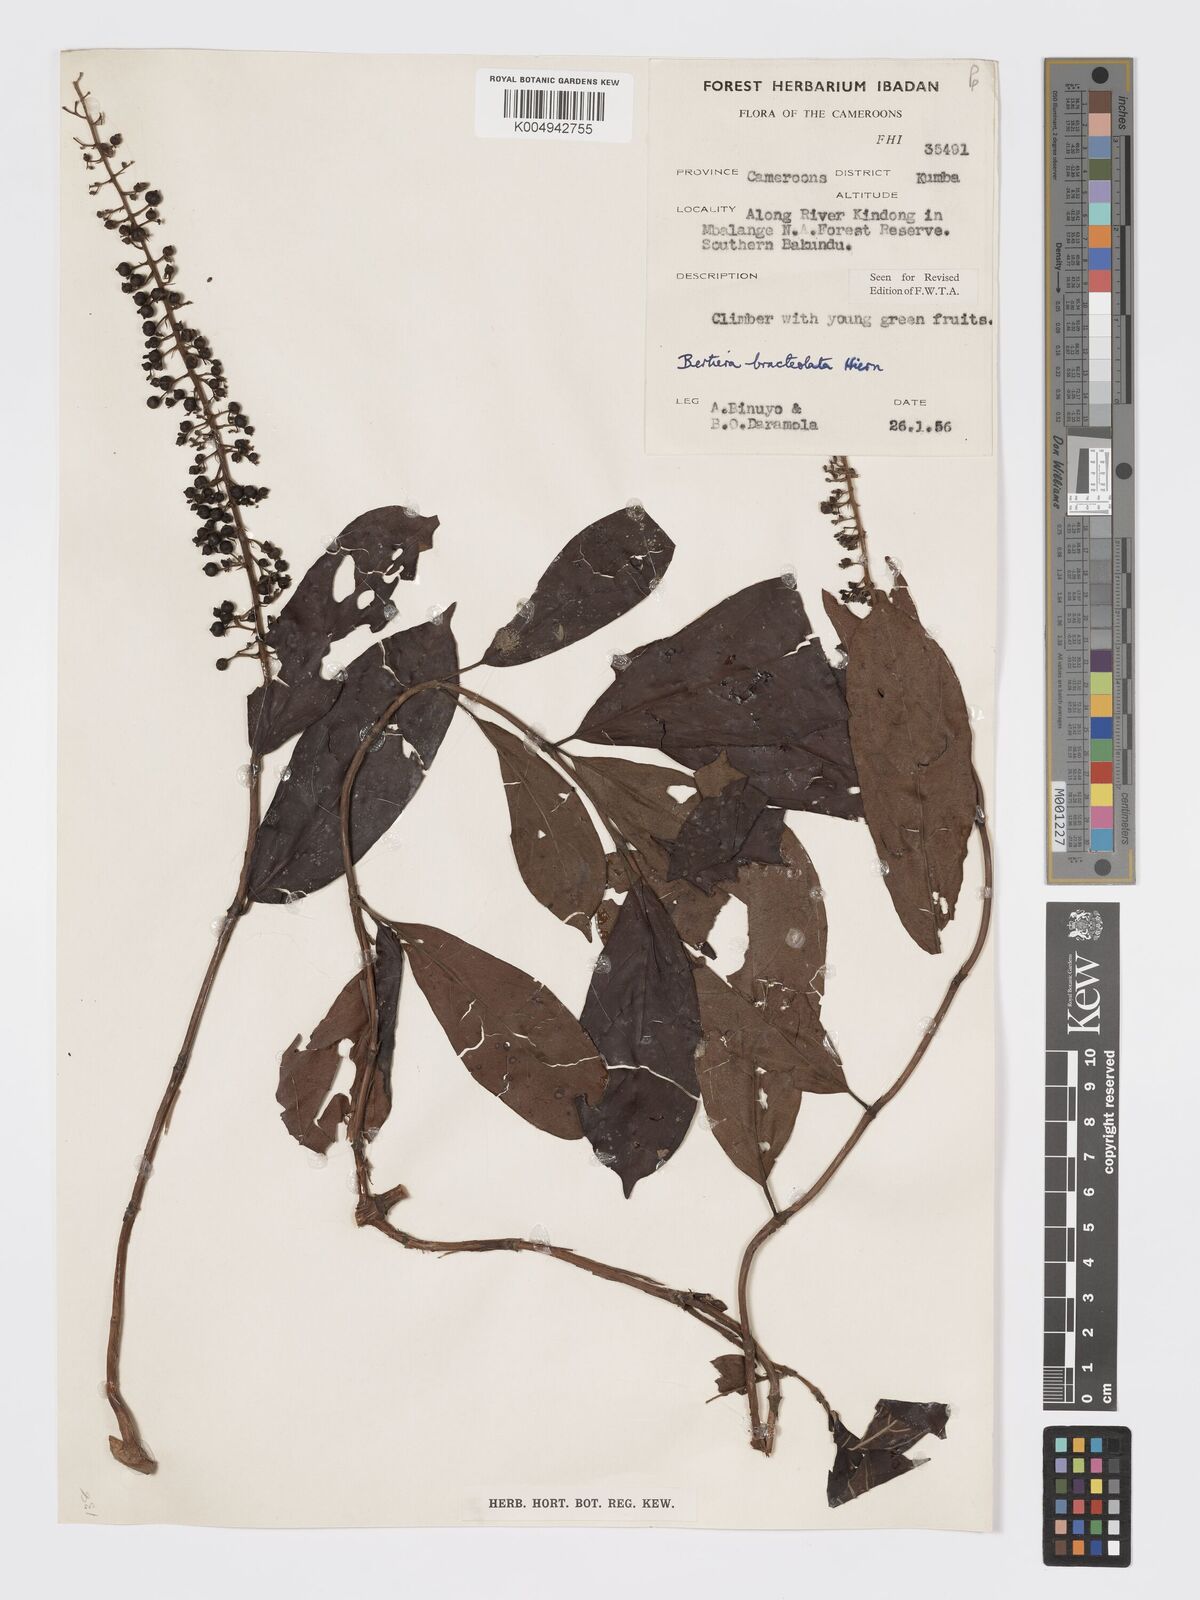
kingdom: Plantae
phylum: Tracheophyta
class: Magnoliopsida
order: Gentianales
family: Rubiaceae
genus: Bertiera
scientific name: Bertiera bracteolata
